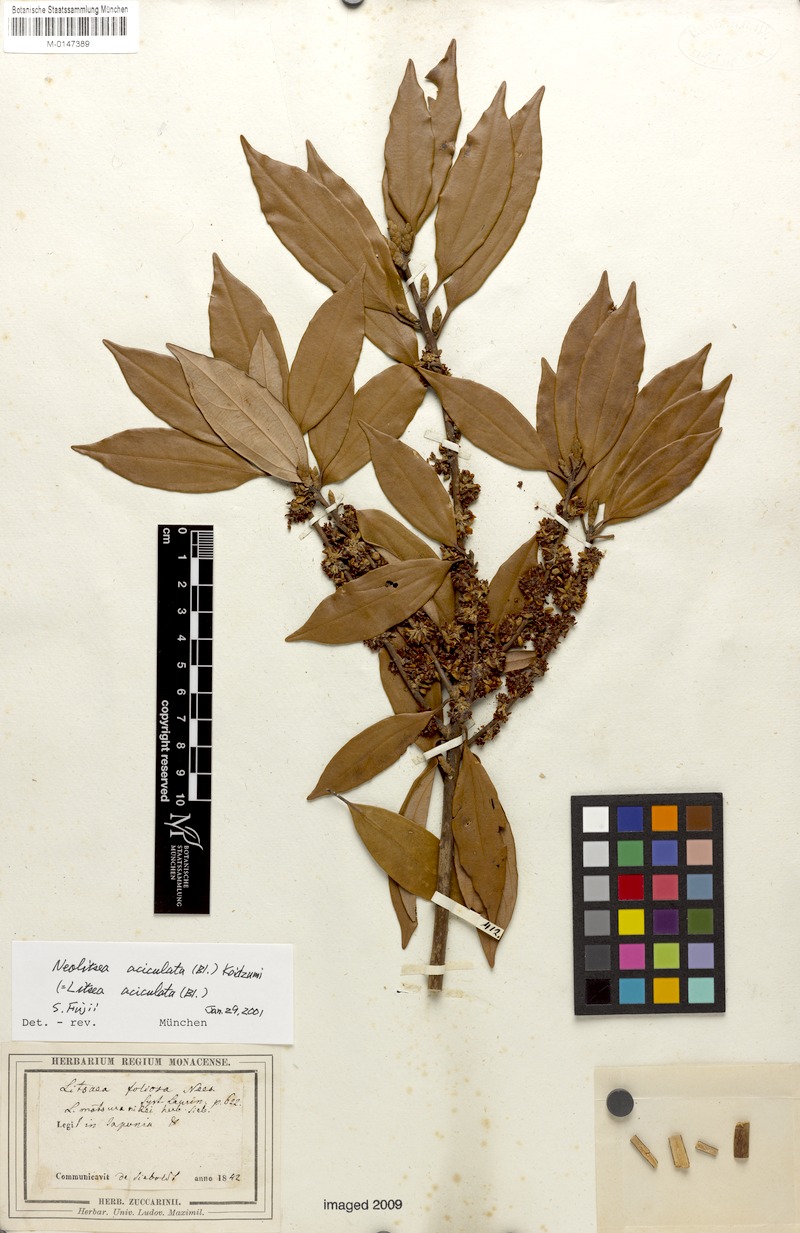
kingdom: Plantae
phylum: Tracheophyta
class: Magnoliopsida
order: Laurales
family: Lauraceae
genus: Neolitsea
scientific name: Neolitsea aciculata
